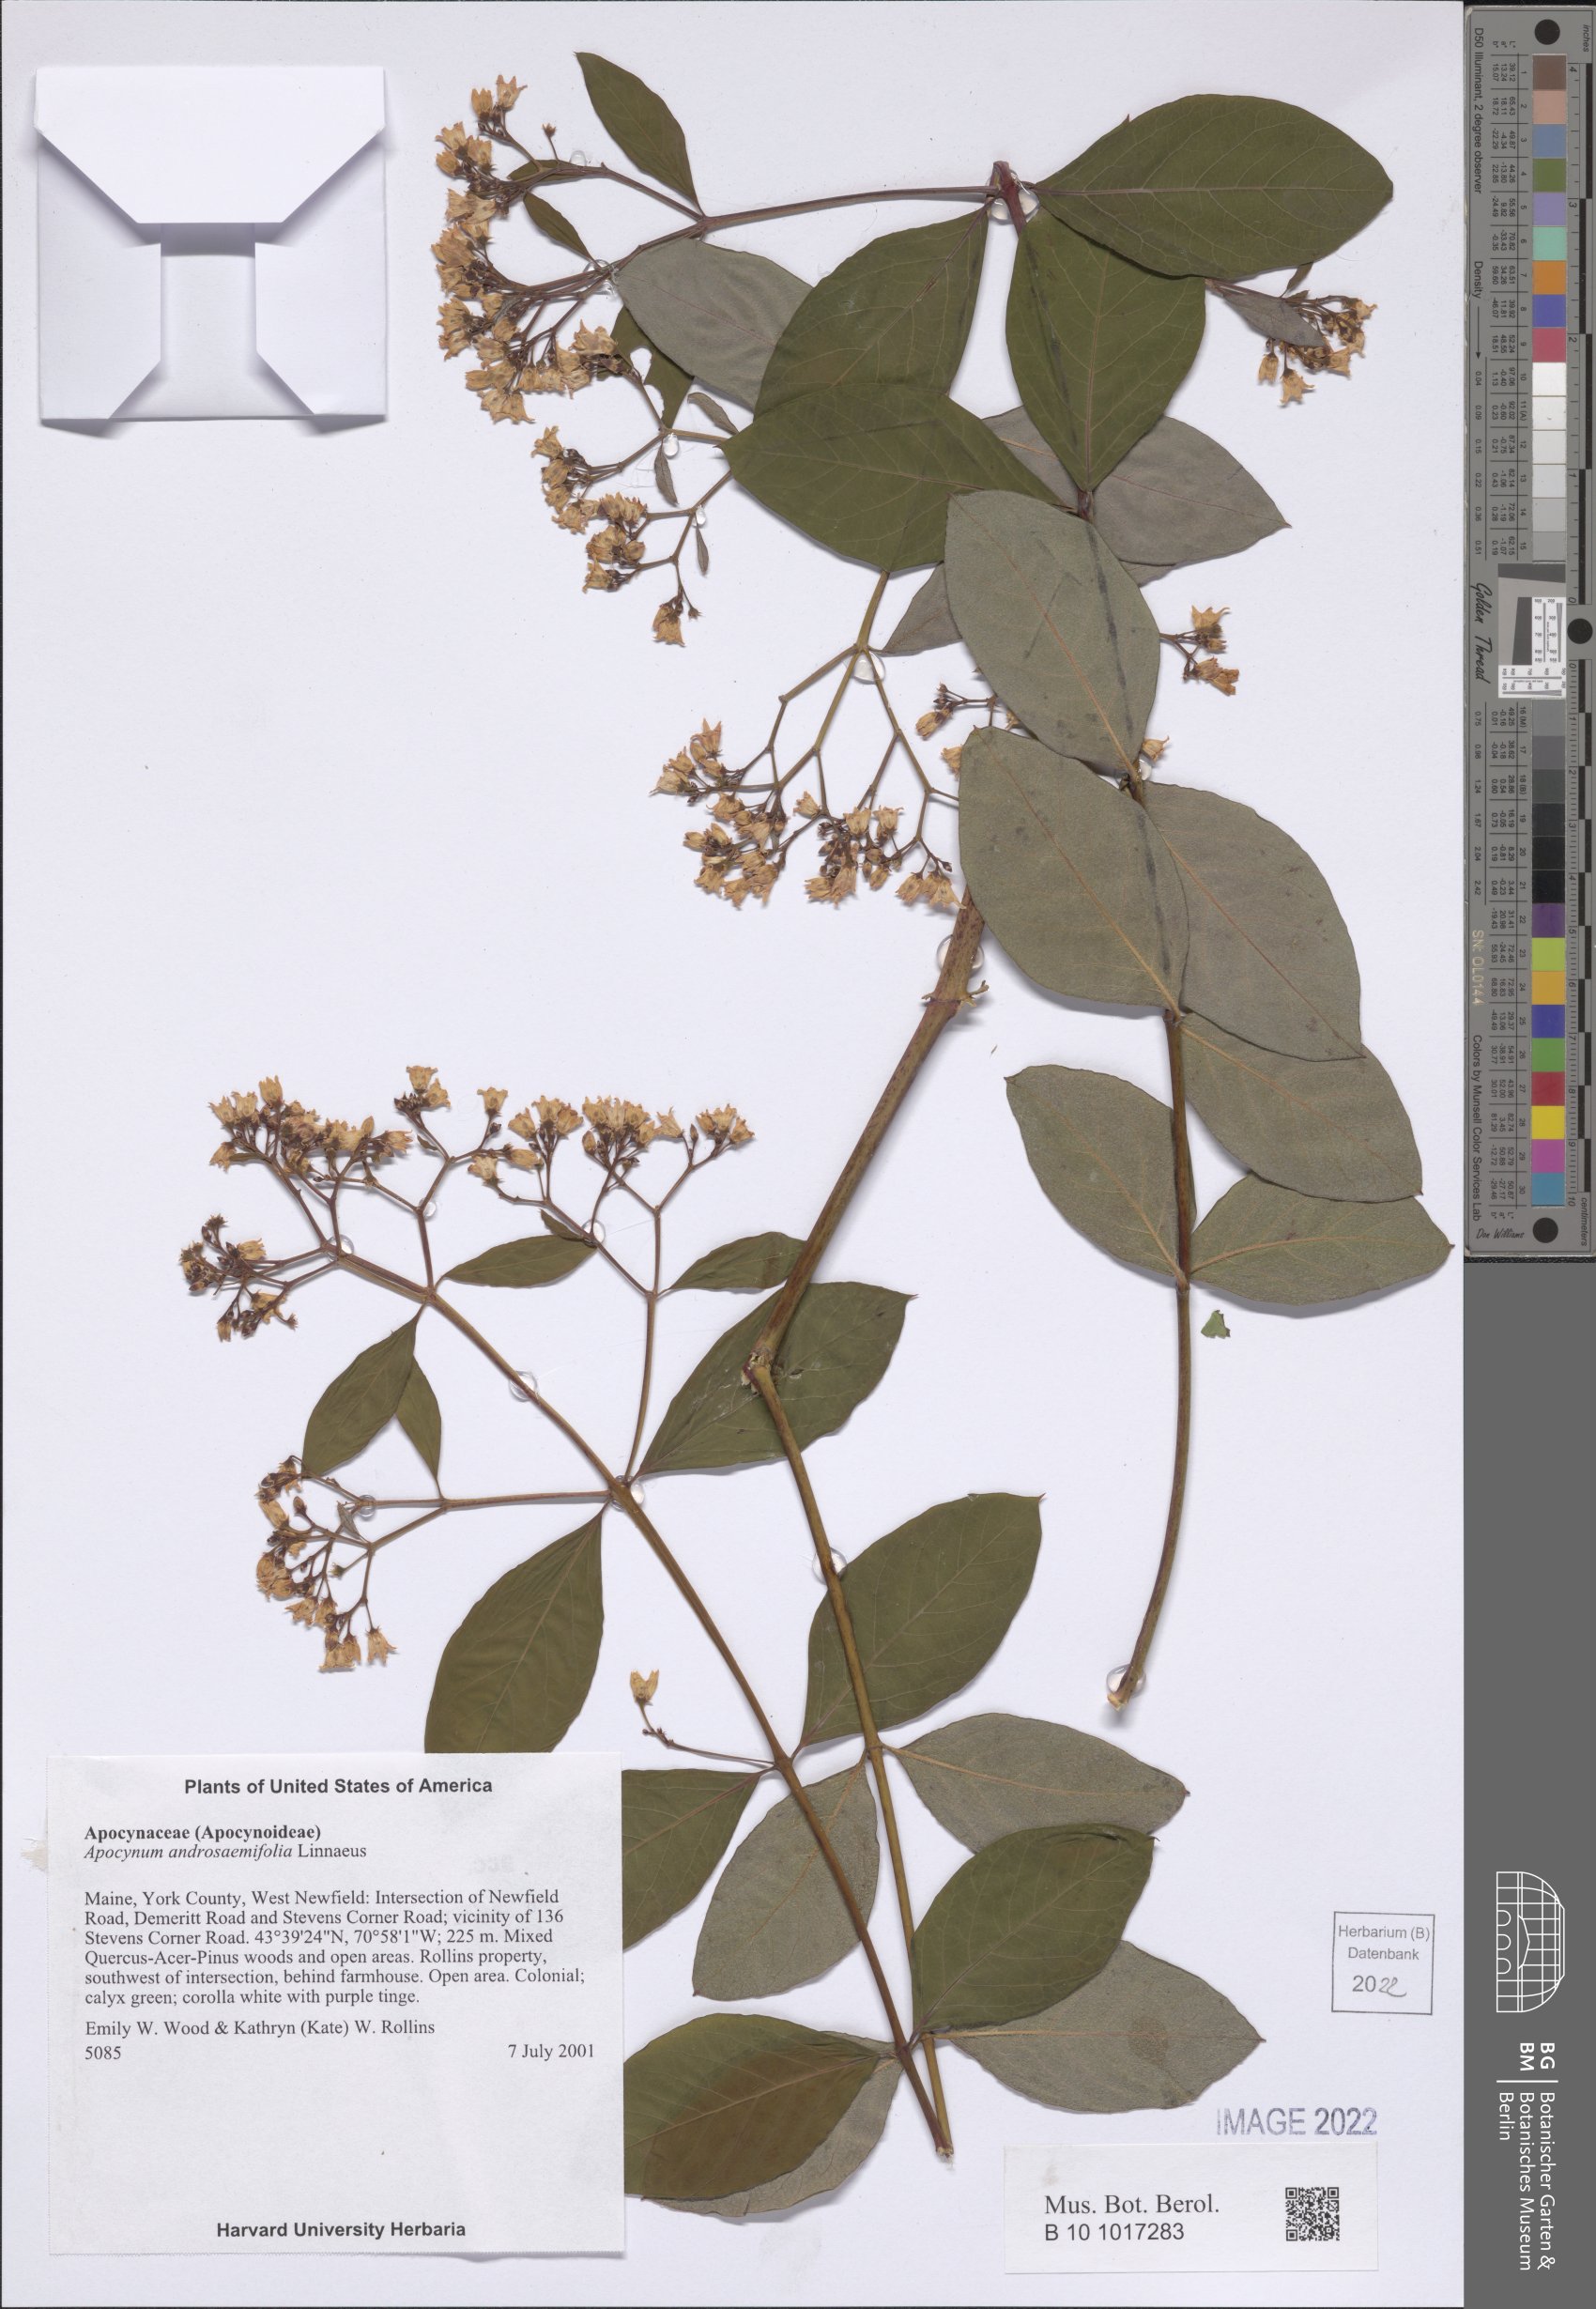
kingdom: Plantae
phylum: Tracheophyta
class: Magnoliopsida
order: Gentianales
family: Apocynaceae
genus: Apocynum
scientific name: Apocynum androsaemifolium
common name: Spreading dogbane
